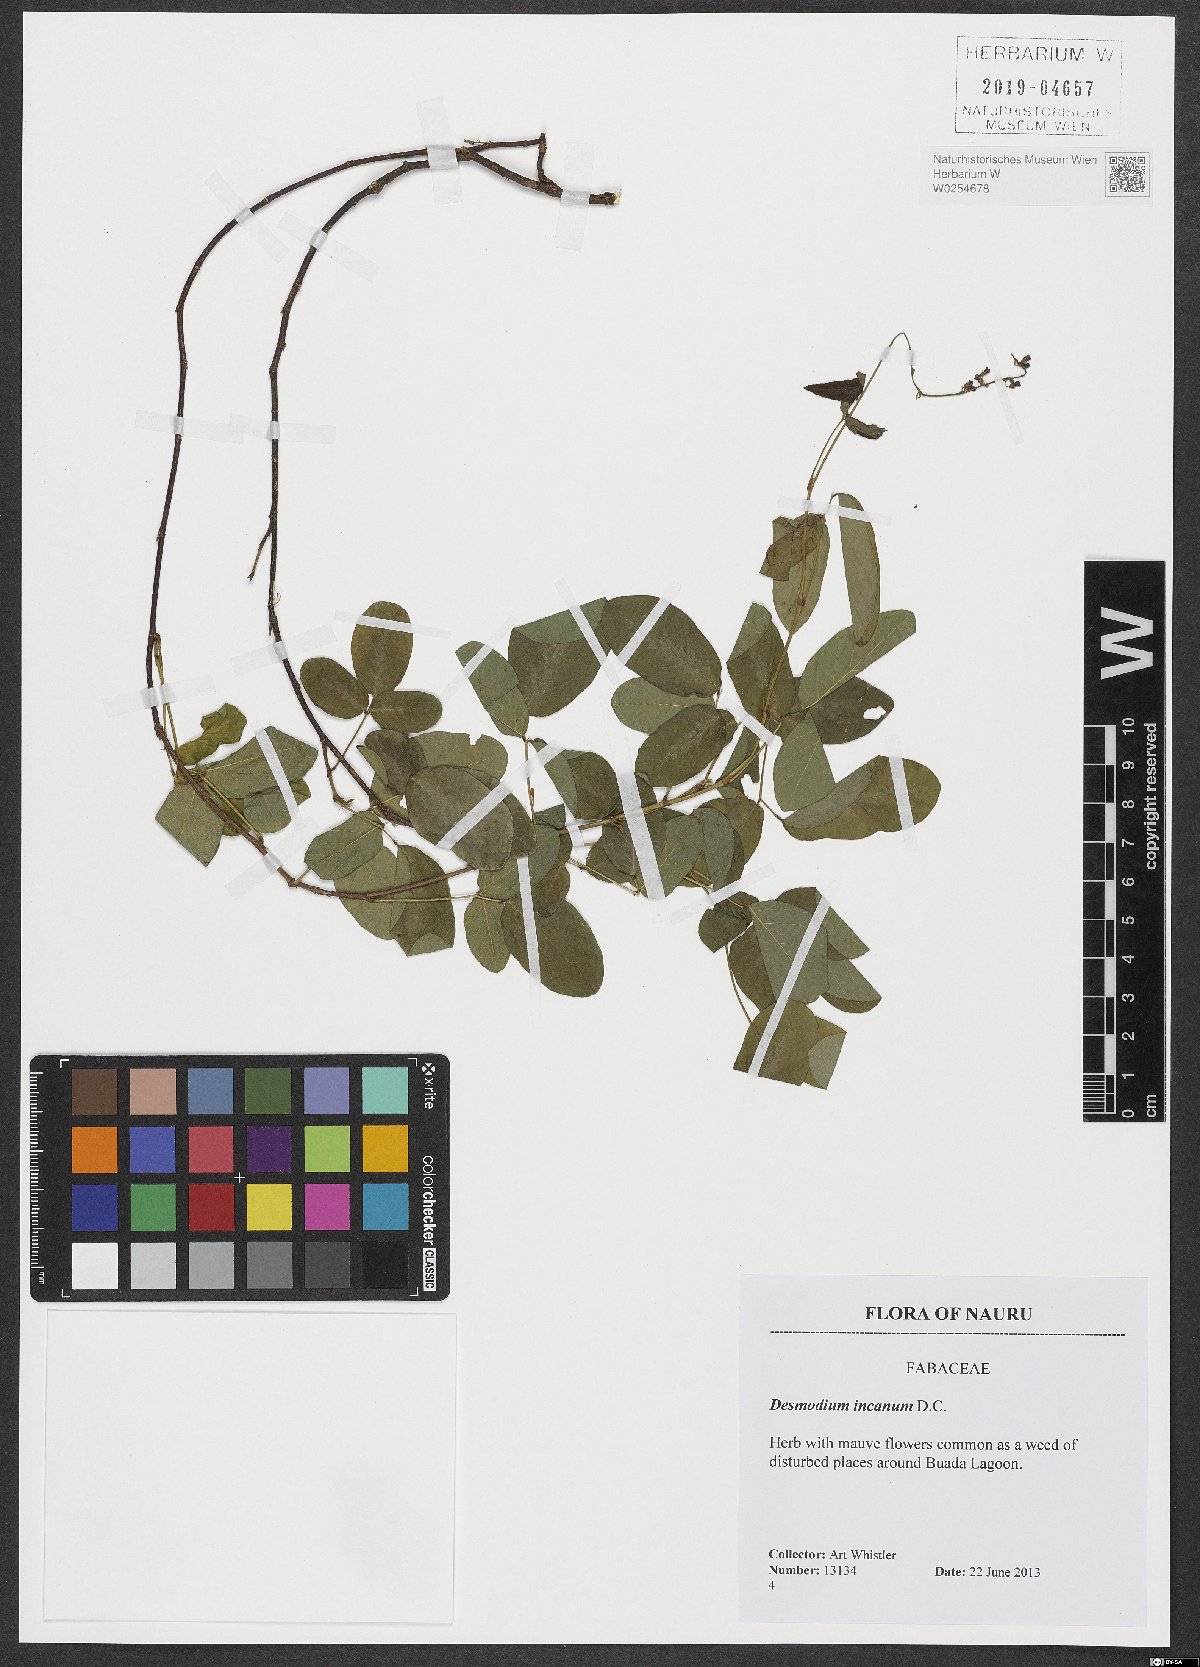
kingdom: Plantae
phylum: Tracheophyta
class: Magnoliopsida
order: Fabales
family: Fabaceae
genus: Desmodium
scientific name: Desmodium incanum
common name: Tickclover
